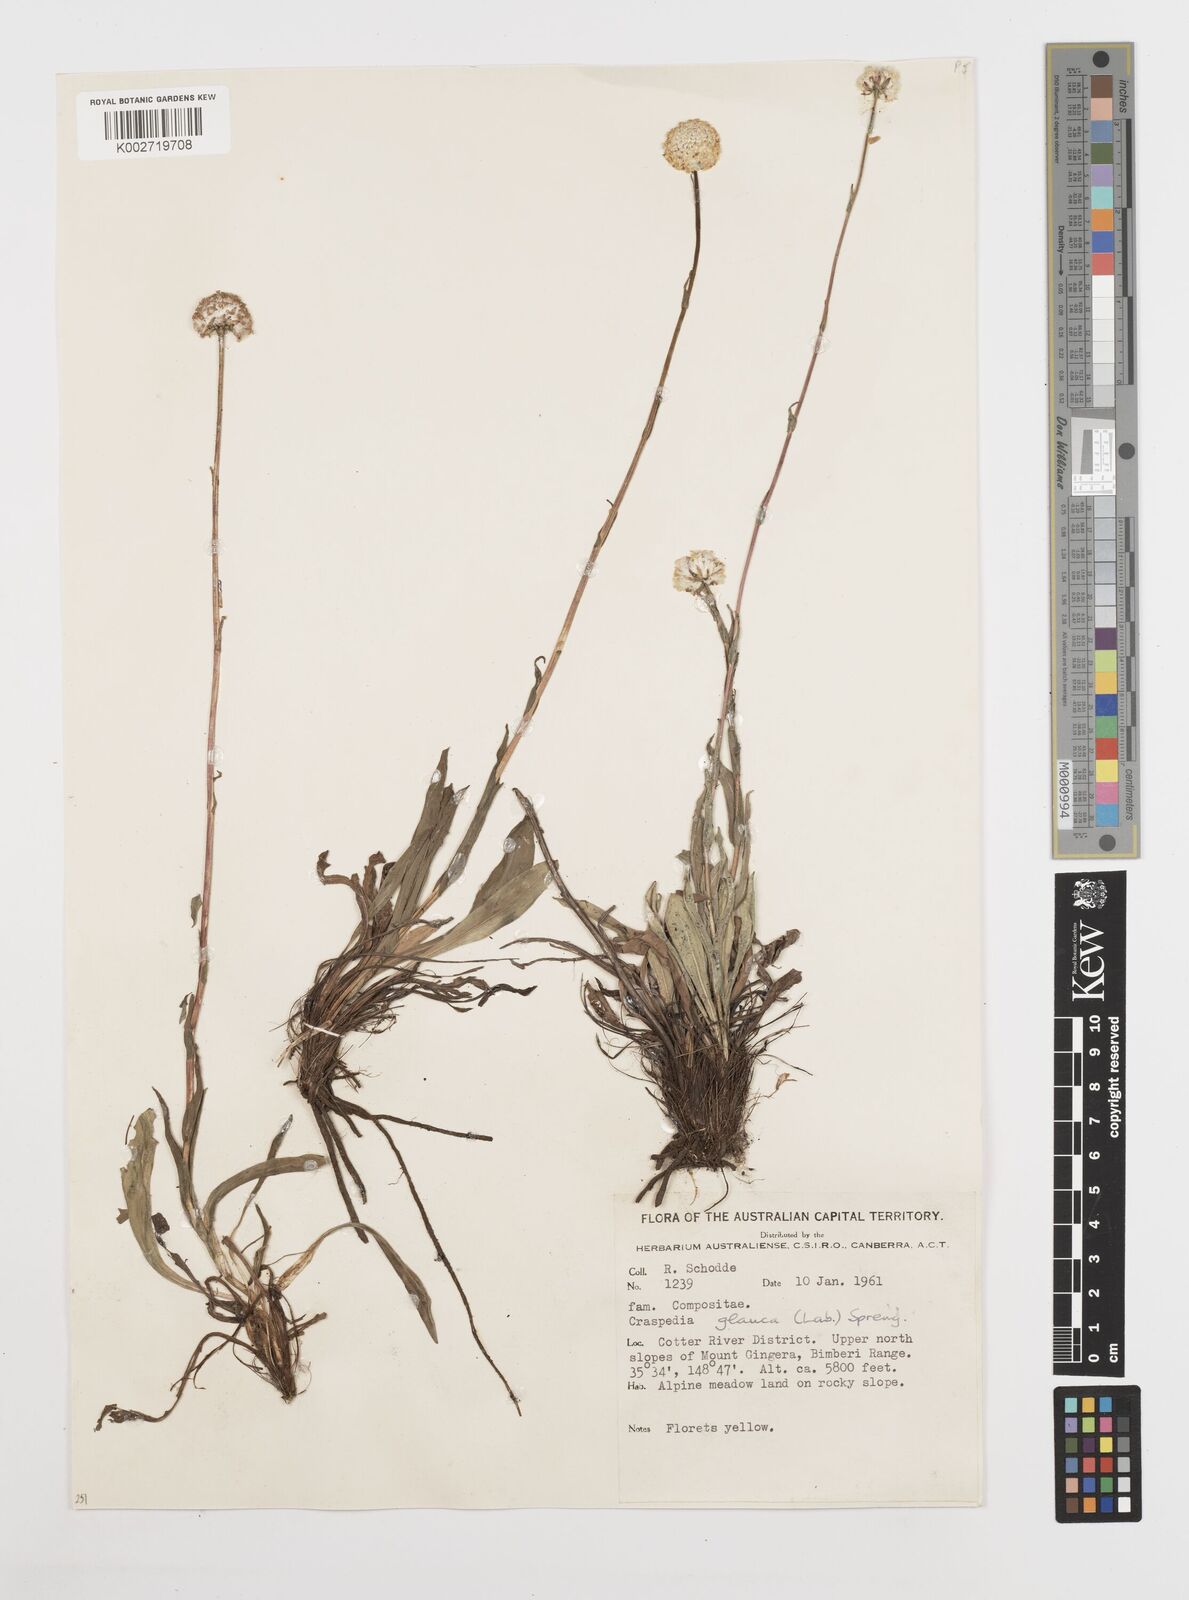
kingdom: Plantae
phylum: Tracheophyta
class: Magnoliopsida
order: Asterales
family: Asteraceae
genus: Craspedia
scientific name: Craspedia
